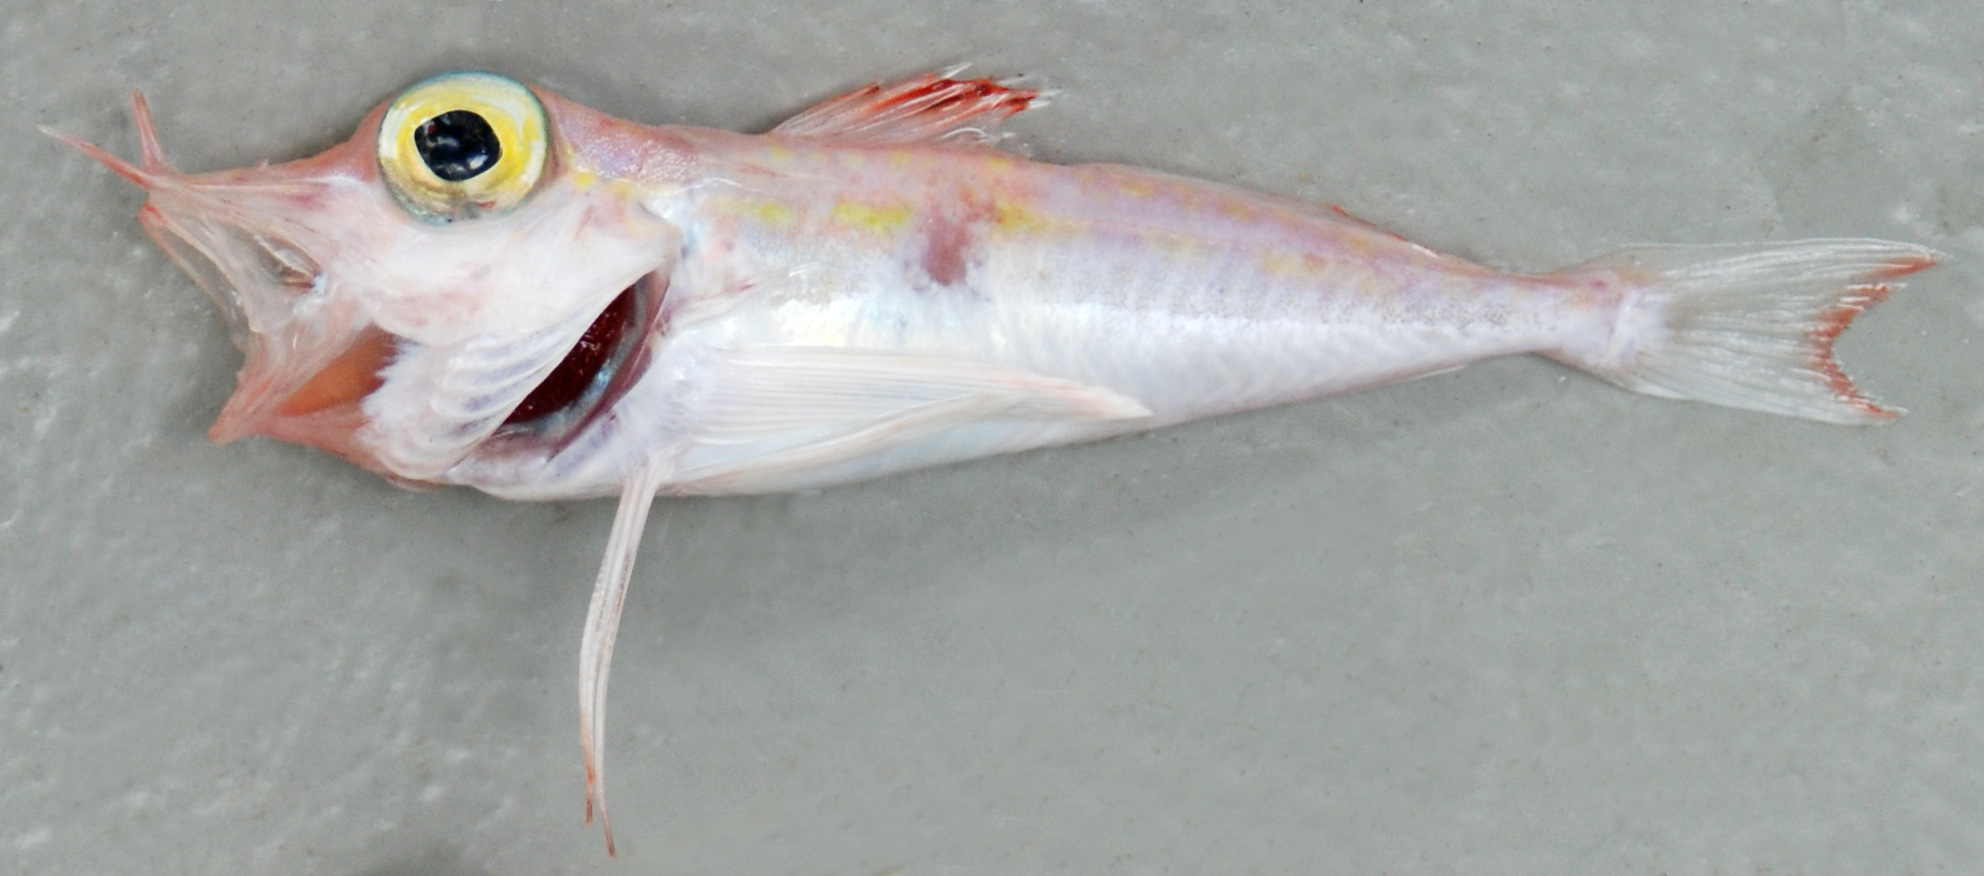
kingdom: Animalia
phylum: Chordata
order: Scorpaeniformes
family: Triglidae
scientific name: Triglidae
